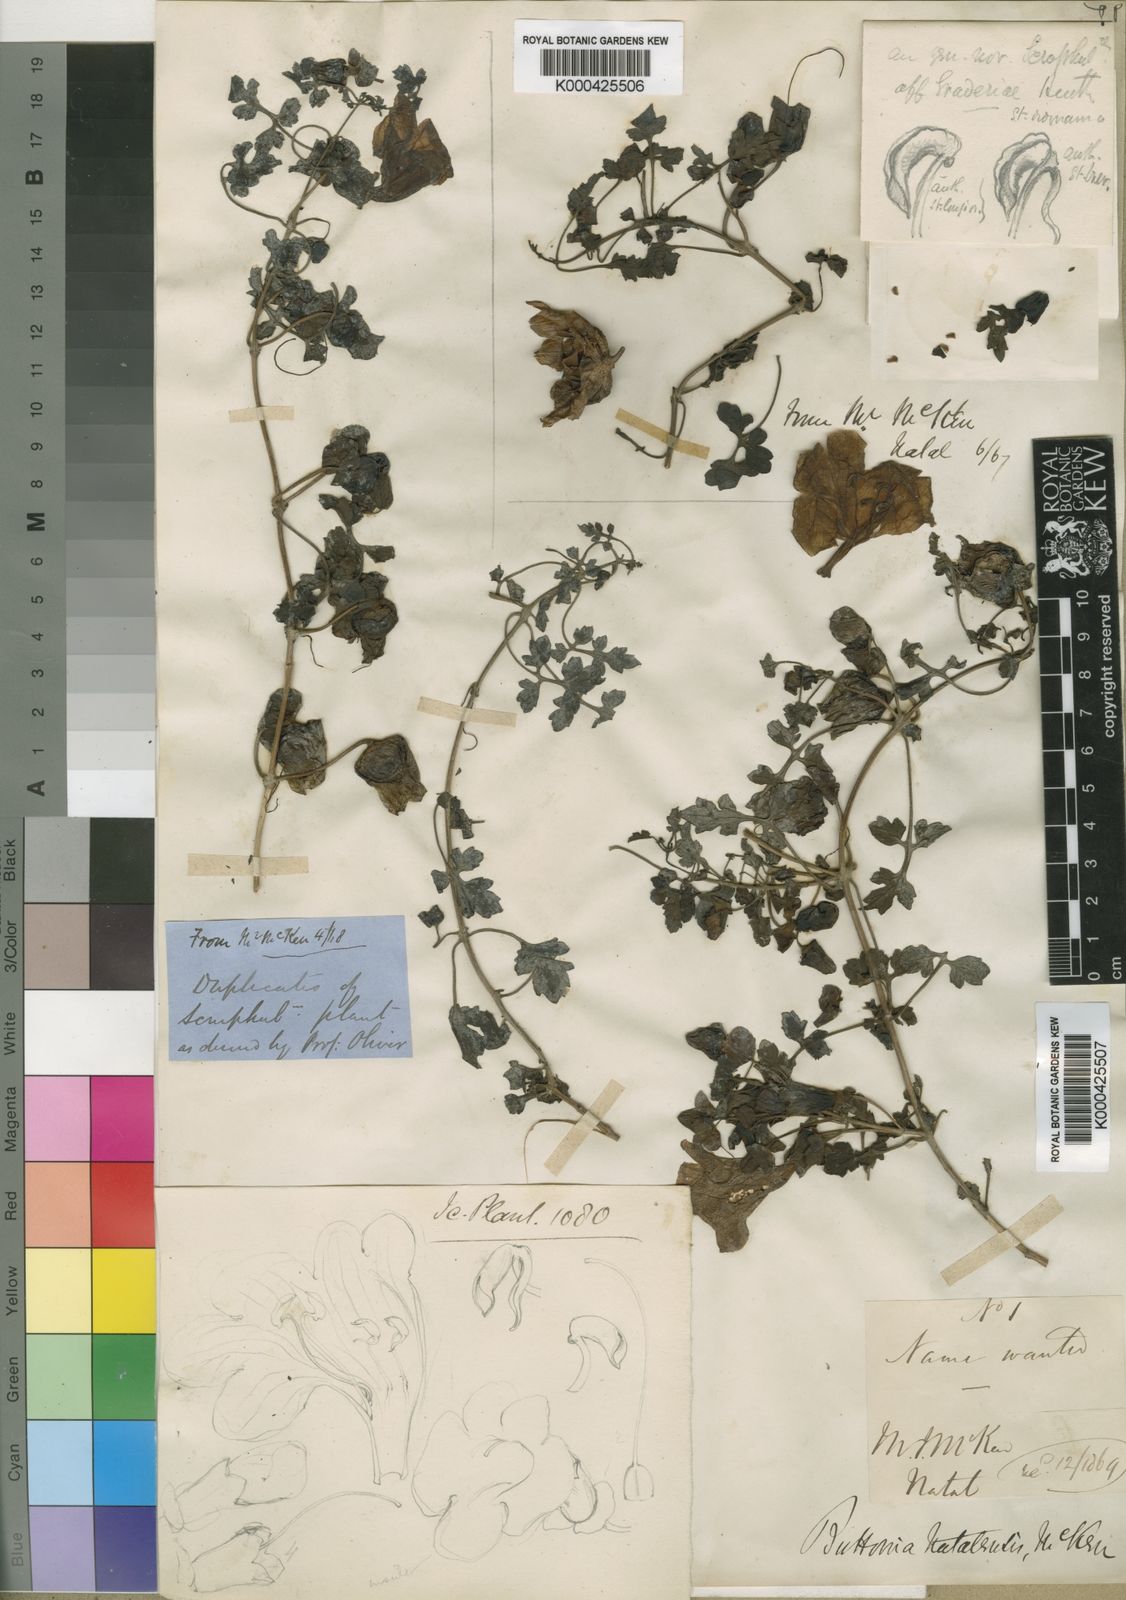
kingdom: Plantae
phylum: Tracheophyta
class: Magnoliopsida
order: Lamiales
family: Orobanchaceae
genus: Buttonia
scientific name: Buttonia natalensis
